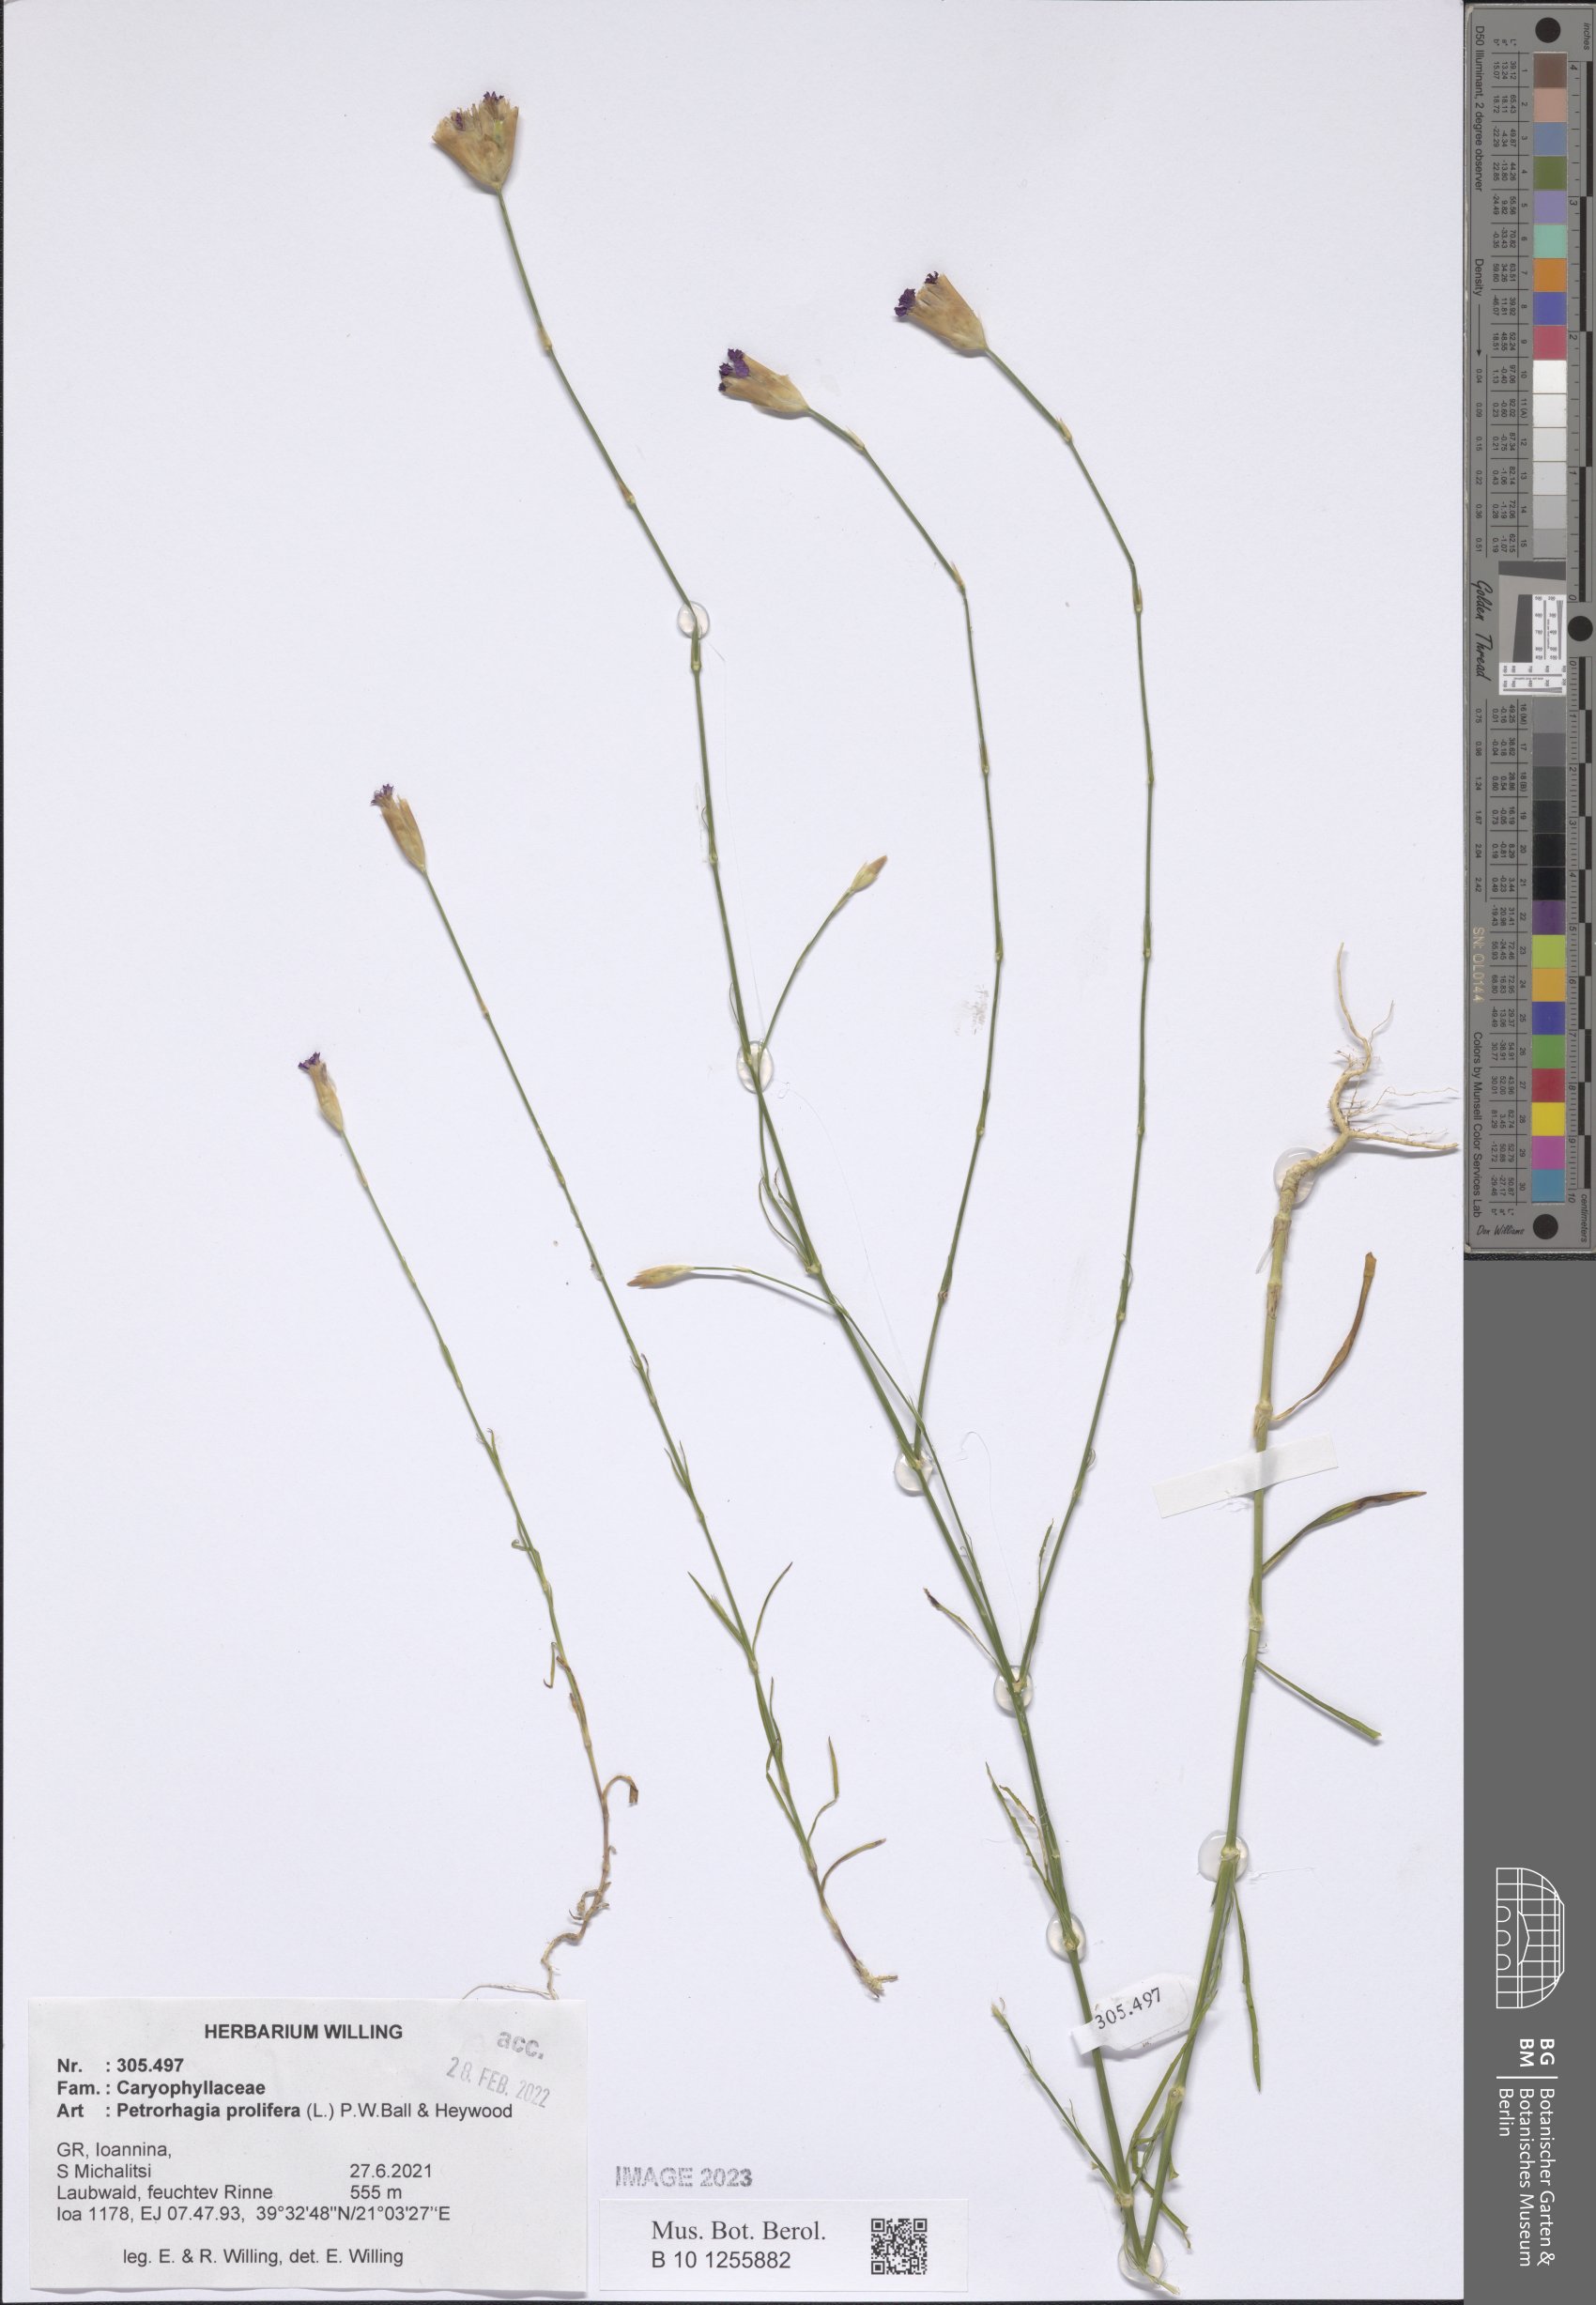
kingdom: Plantae
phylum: Tracheophyta
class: Magnoliopsida
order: Caryophyllales
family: Caryophyllaceae
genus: Petrorhagia
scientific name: Petrorhagia prolifera
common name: Proliferous pink
